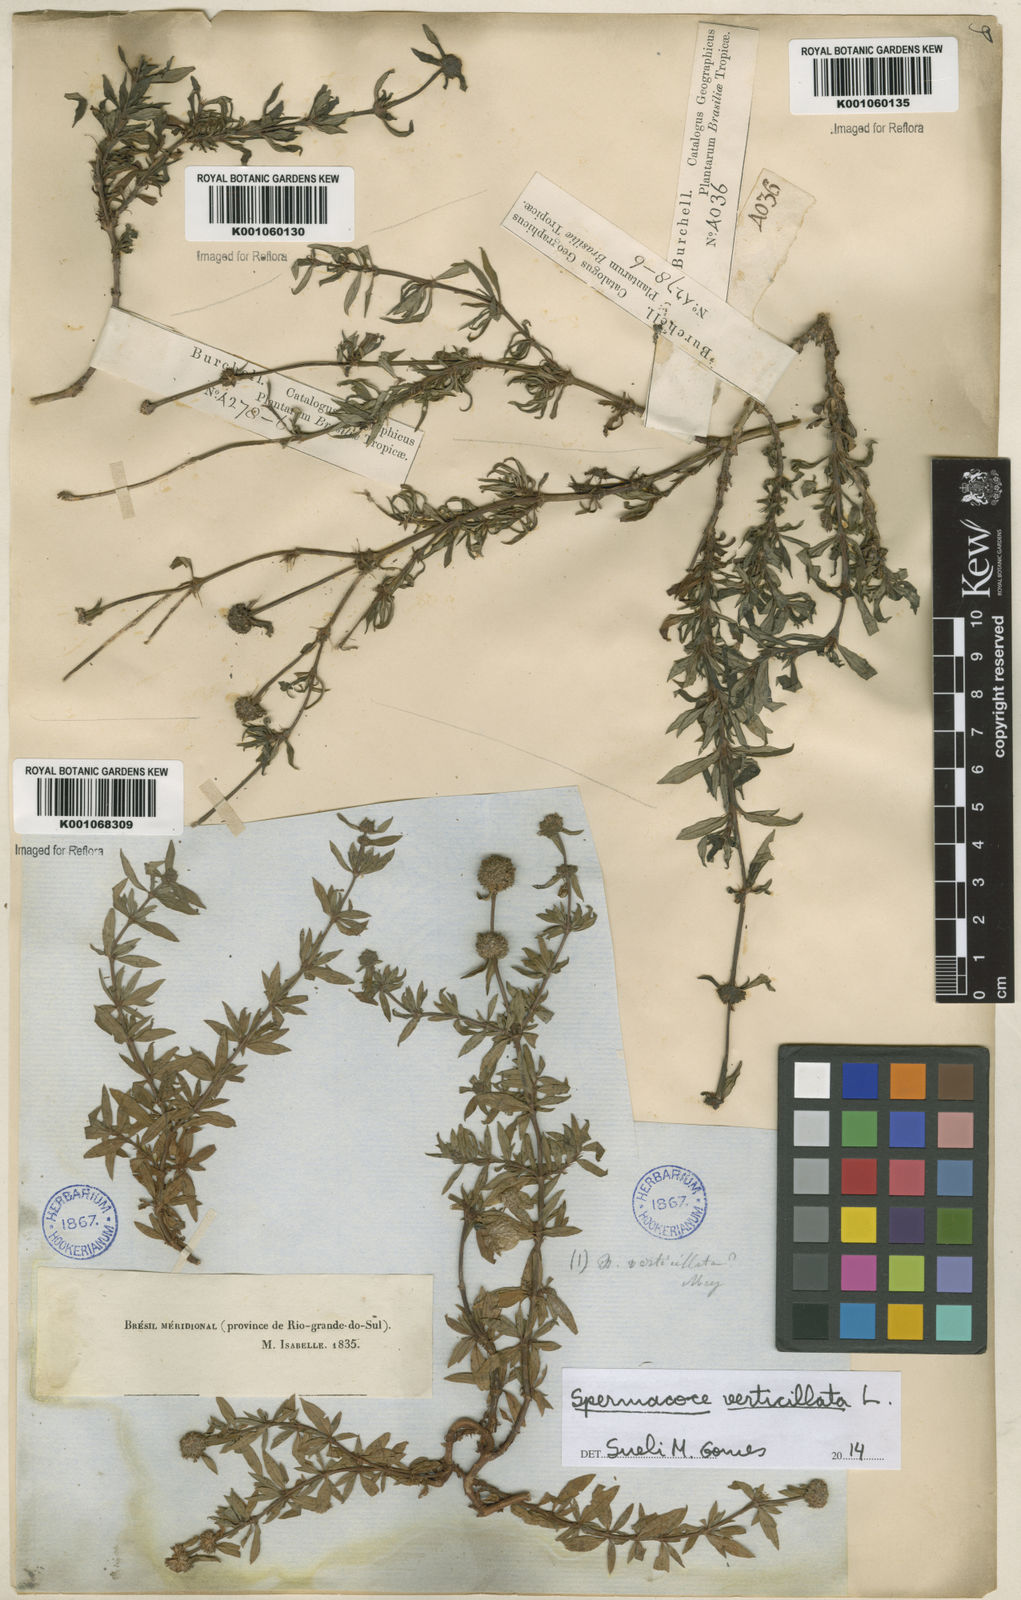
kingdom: Plantae
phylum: Tracheophyta
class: Magnoliopsida
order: Gentianales
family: Rubiaceae
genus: Spermacoce
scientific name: Spermacoce verticillata
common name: Shrubby false buttonweed
